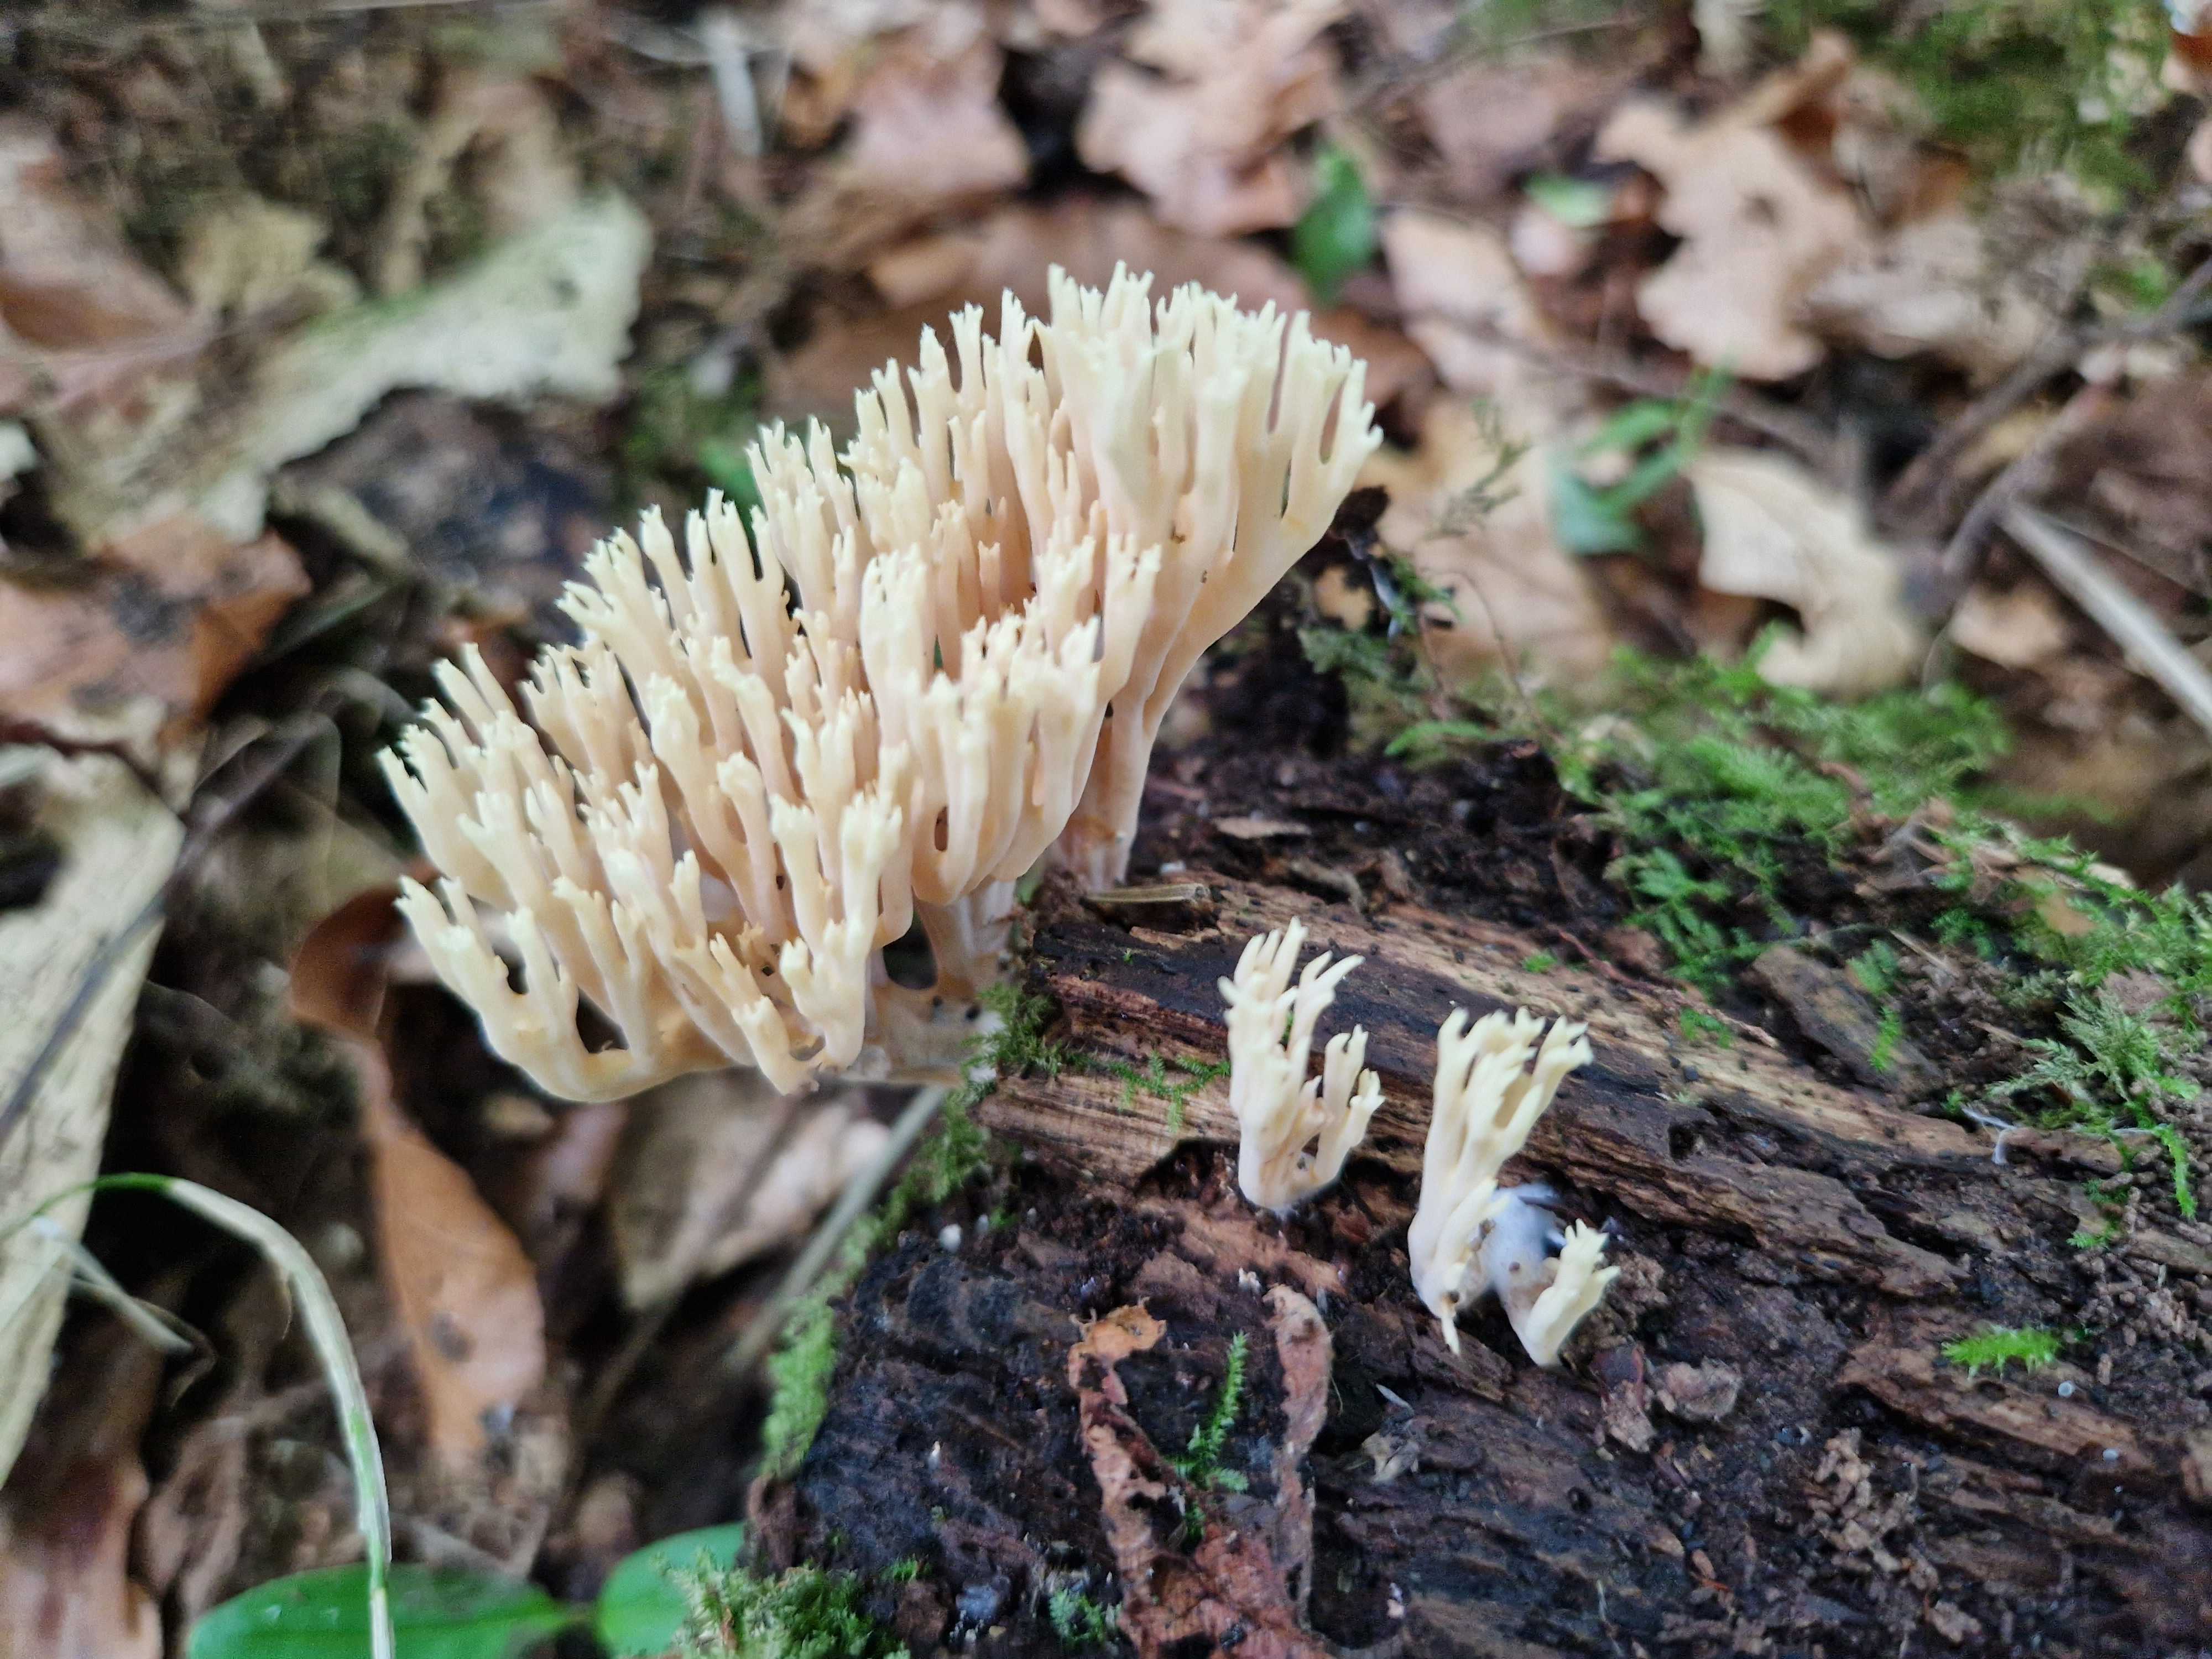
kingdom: Fungi
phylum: Basidiomycota
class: Agaricomycetes
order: Gomphales
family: Gomphaceae
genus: Ramaria
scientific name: Ramaria stricta
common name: rank koralsvamp
